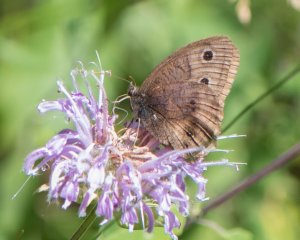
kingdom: Animalia
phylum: Arthropoda
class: Insecta
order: Lepidoptera
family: Nymphalidae
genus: Cercyonis
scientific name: Cercyonis pegala
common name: Common Wood-Nymph
